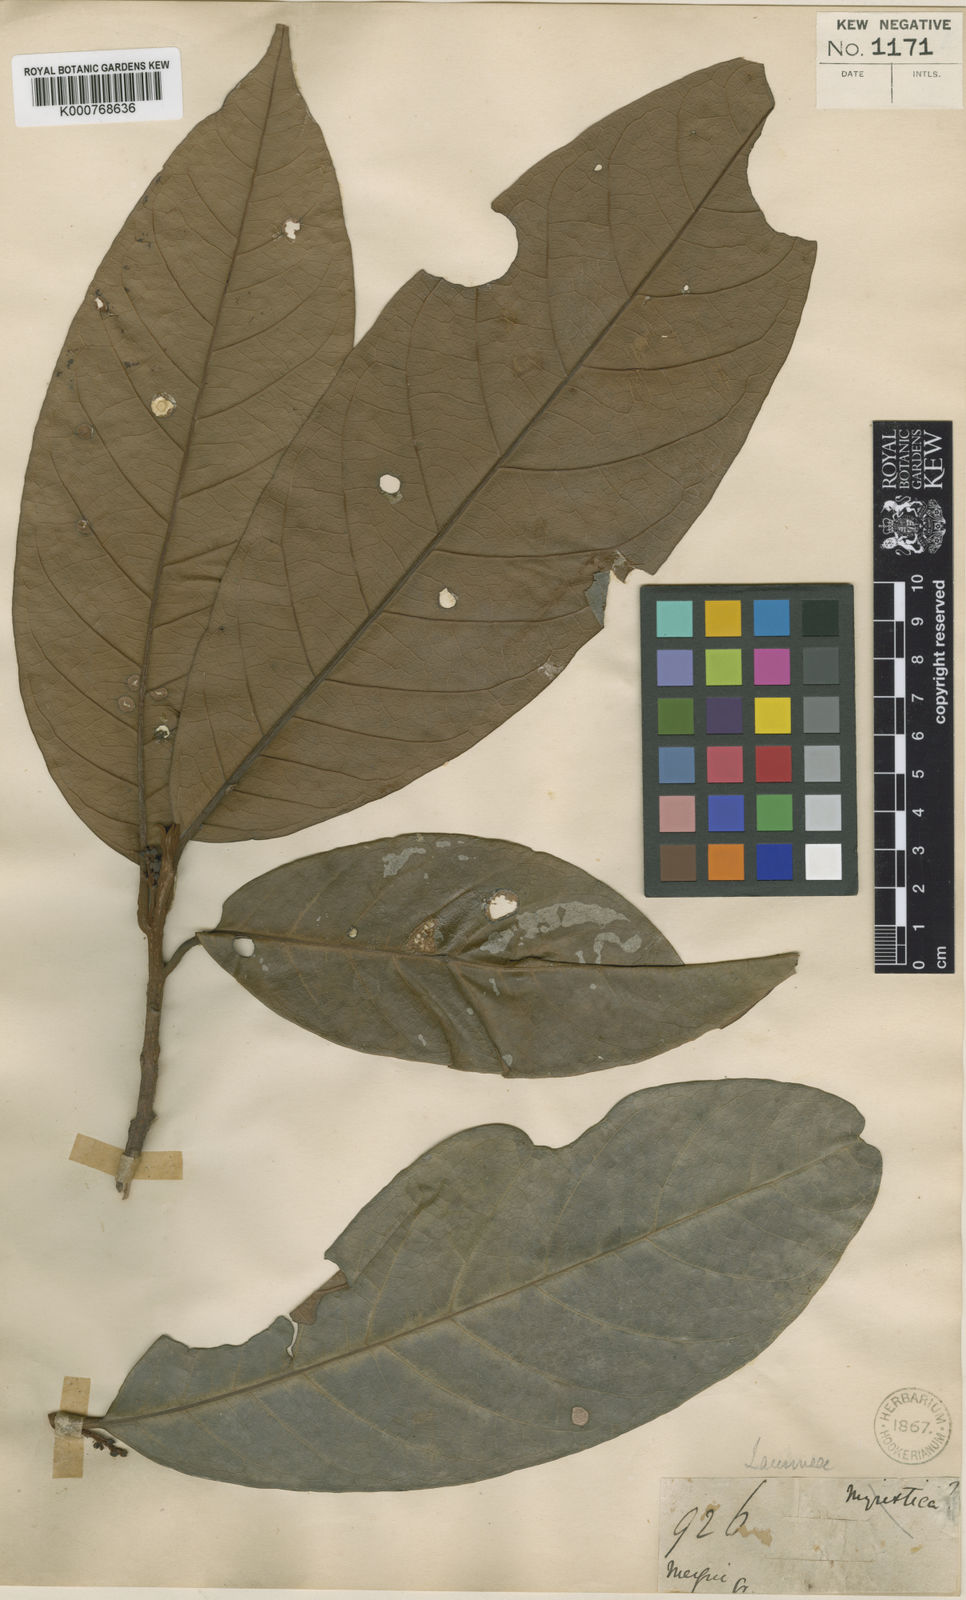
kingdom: Plantae
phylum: Tracheophyta
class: Magnoliopsida
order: Laurales
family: Lauraceae
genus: Beilschmiedia
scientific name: Beilschmiedia macrophylla
